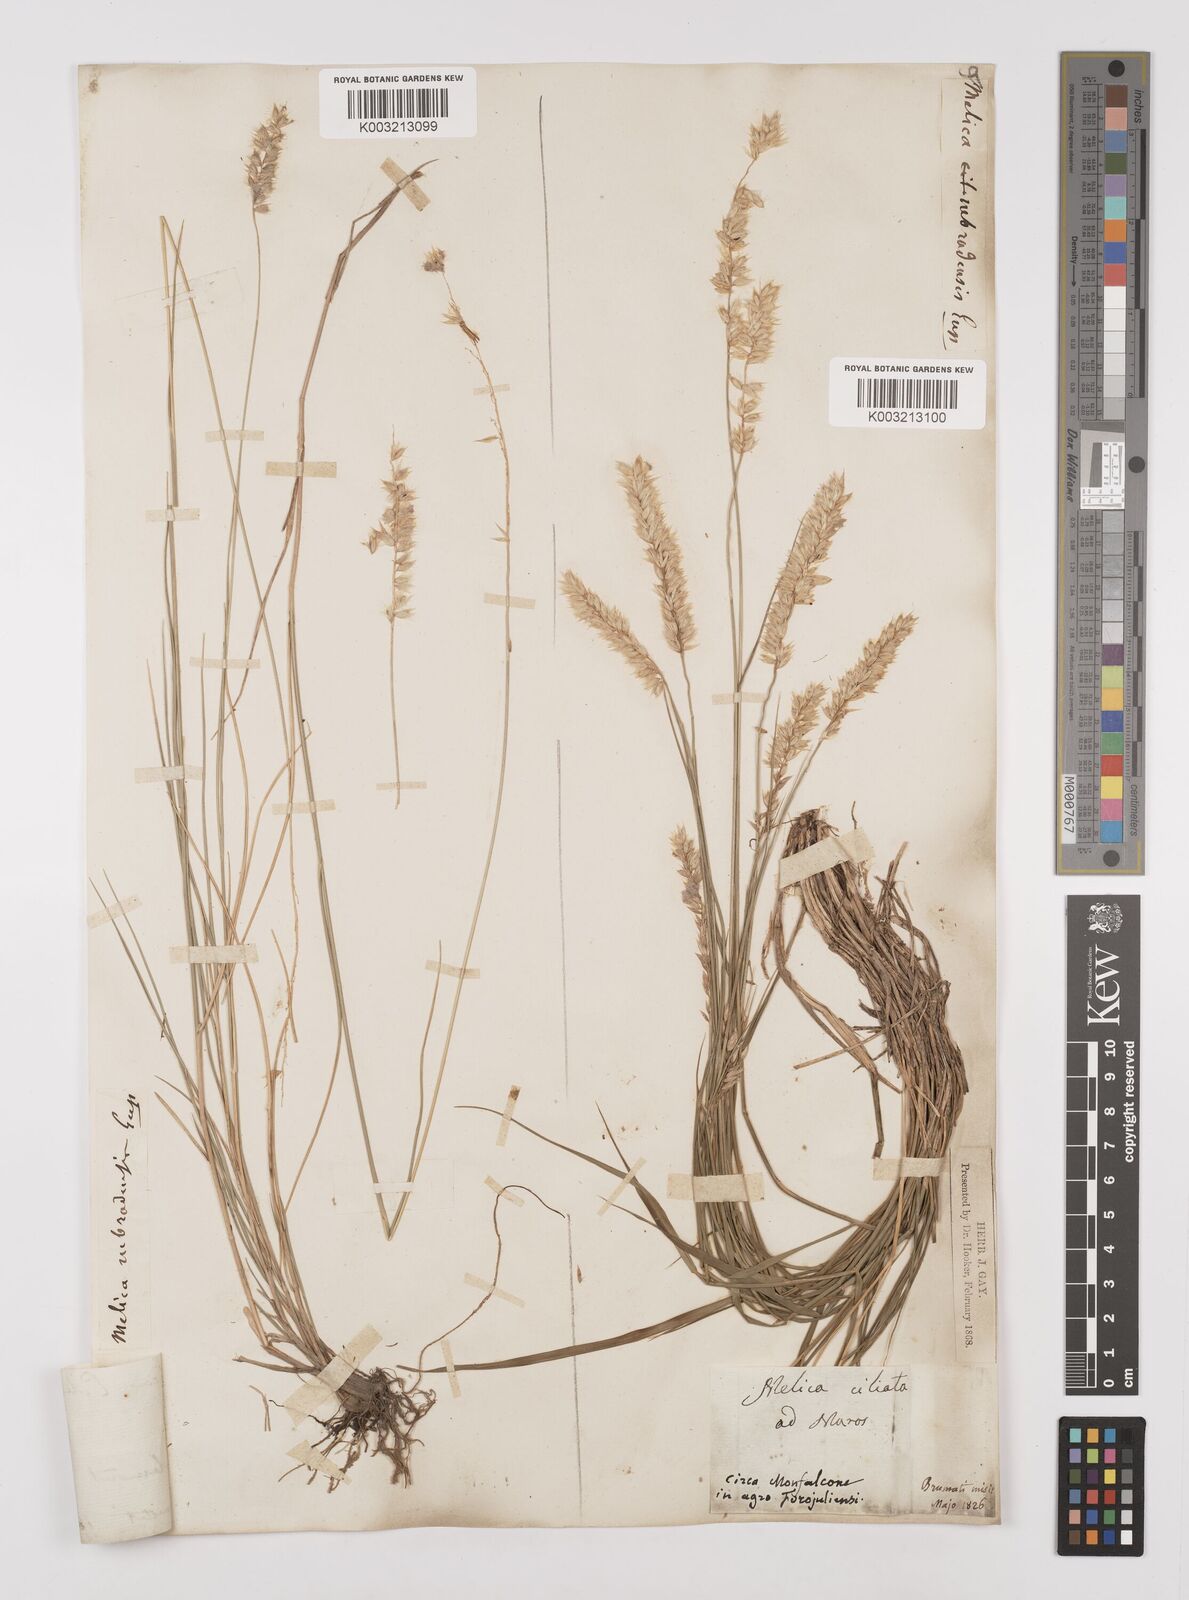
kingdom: Plantae
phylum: Tracheophyta
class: Liliopsida
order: Poales
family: Poaceae
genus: Melica
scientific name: Melica ciliata
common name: Hairy melicgrass
